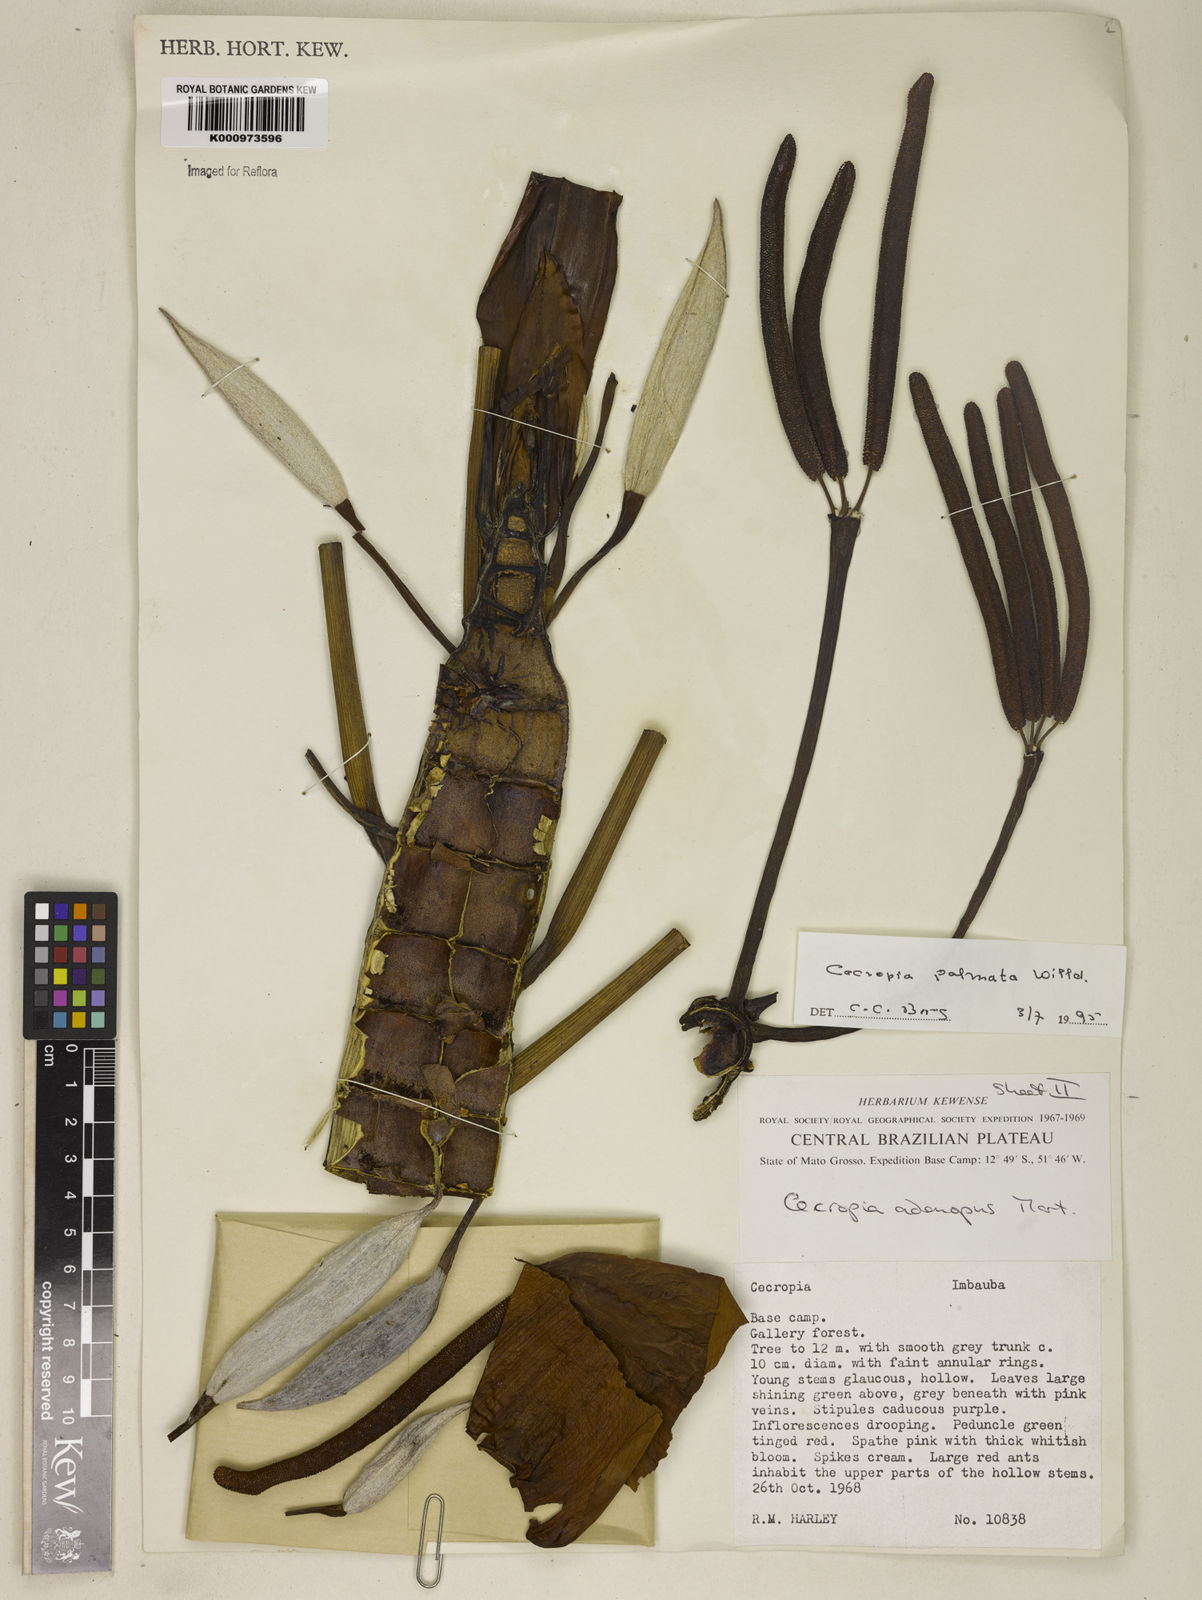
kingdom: Plantae
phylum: Tracheophyta
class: Magnoliopsida
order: Rosales
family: Urticaceae
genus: Cecropia
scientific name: Cecropia palmata
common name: Trumpet tree
